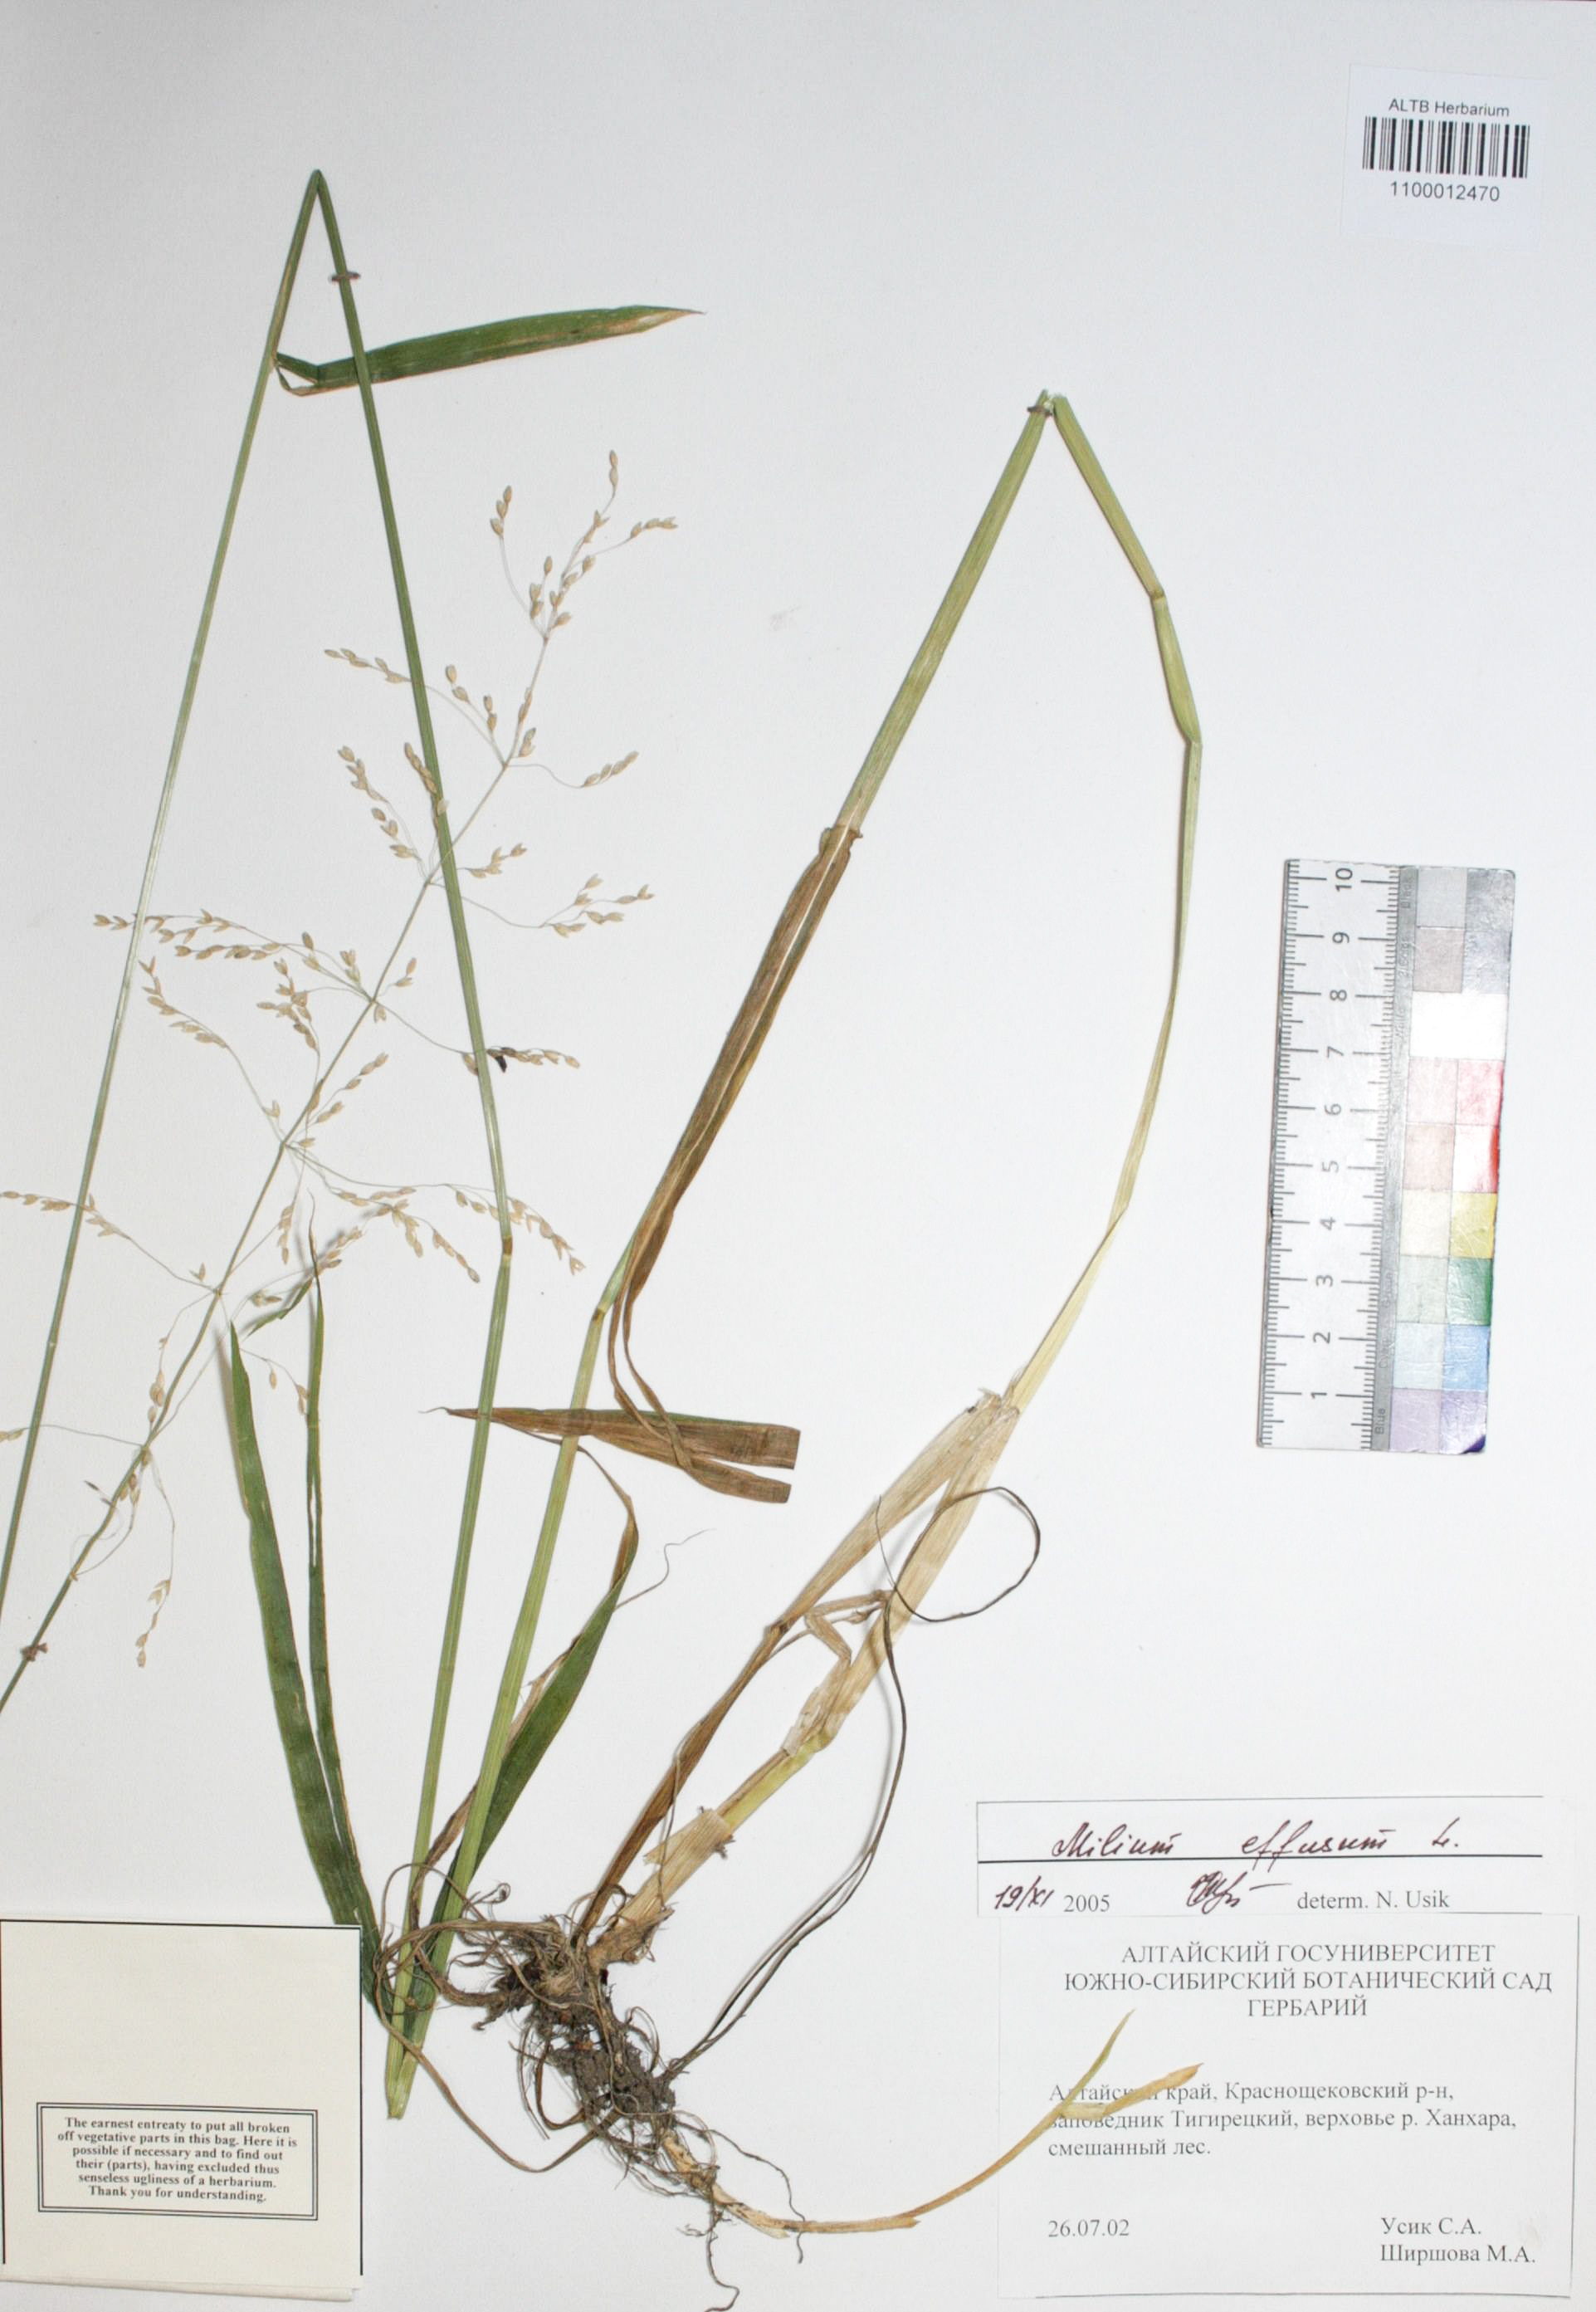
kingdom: Plantae
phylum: Tracheophyta
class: Liliopsida
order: Poales
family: Poaceae
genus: Milium
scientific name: Milium effusum
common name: Wood millet
